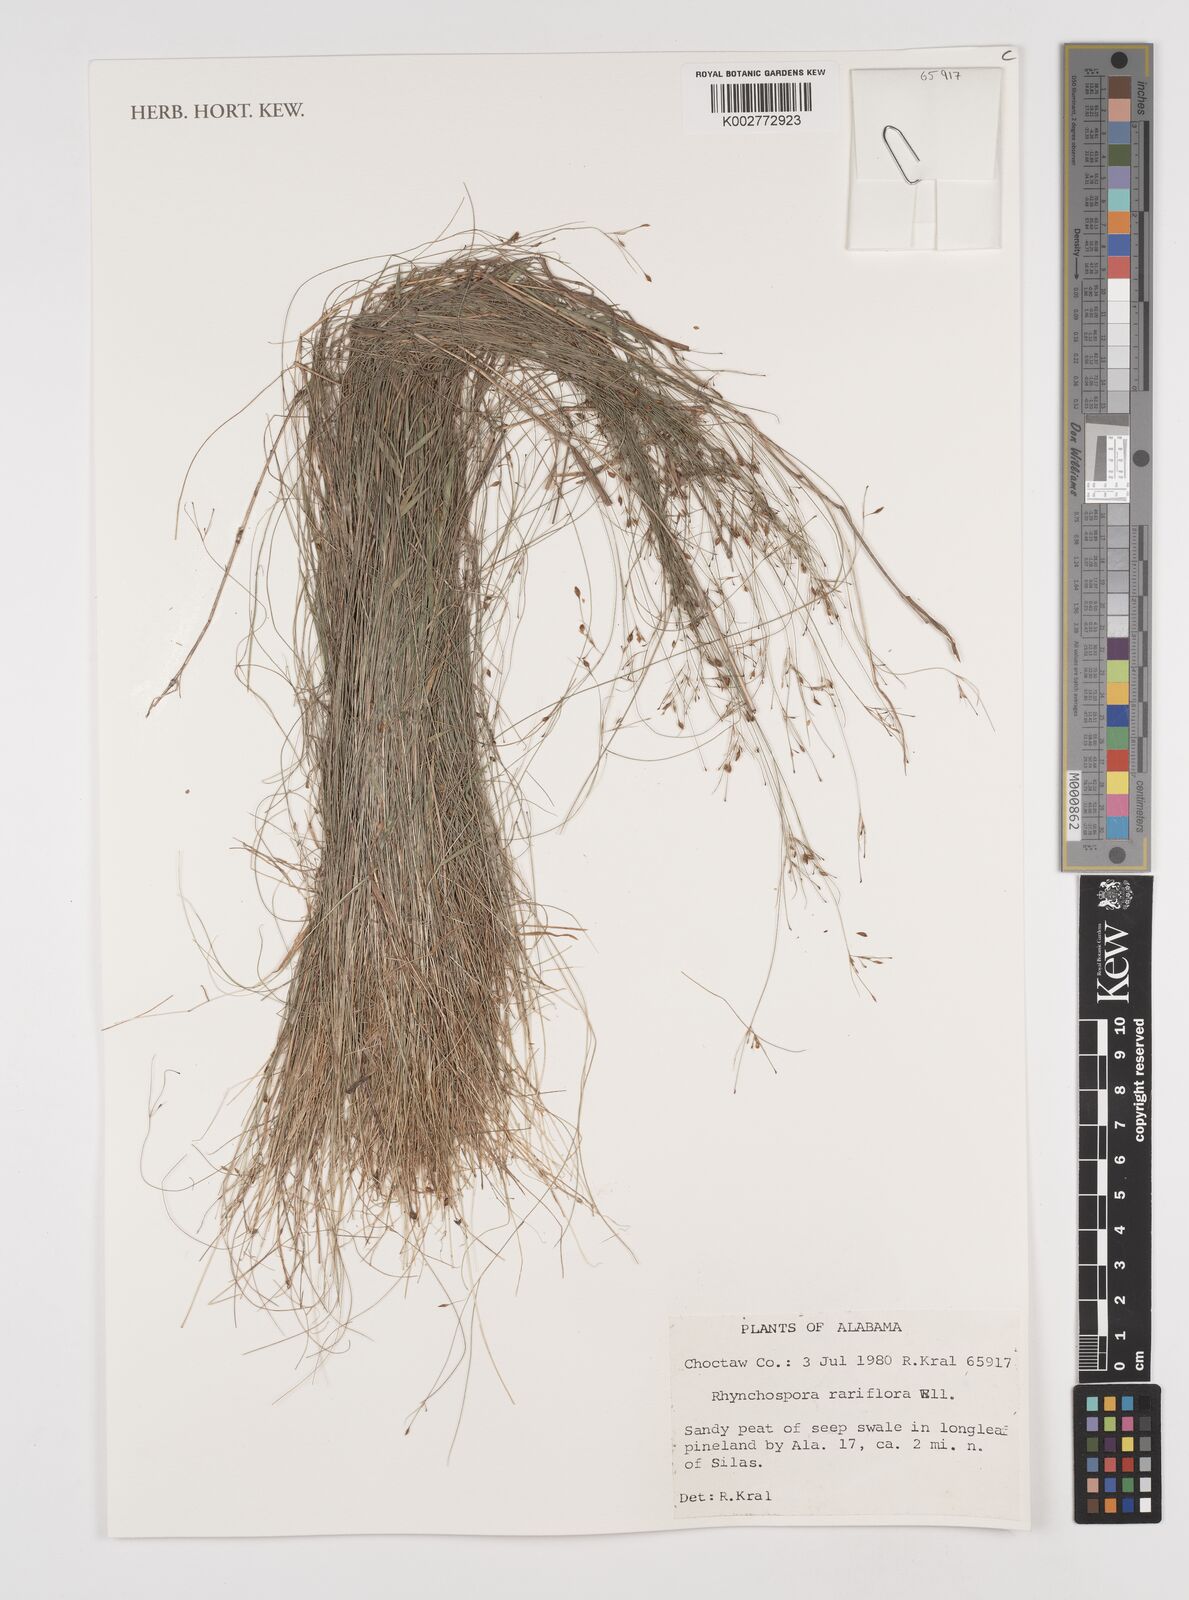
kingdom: Plantae
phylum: Tracheophyta
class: Liliopsida
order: Poales
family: Cyperaceae
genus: Rhynchospora
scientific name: Rhynchospora rariflora
